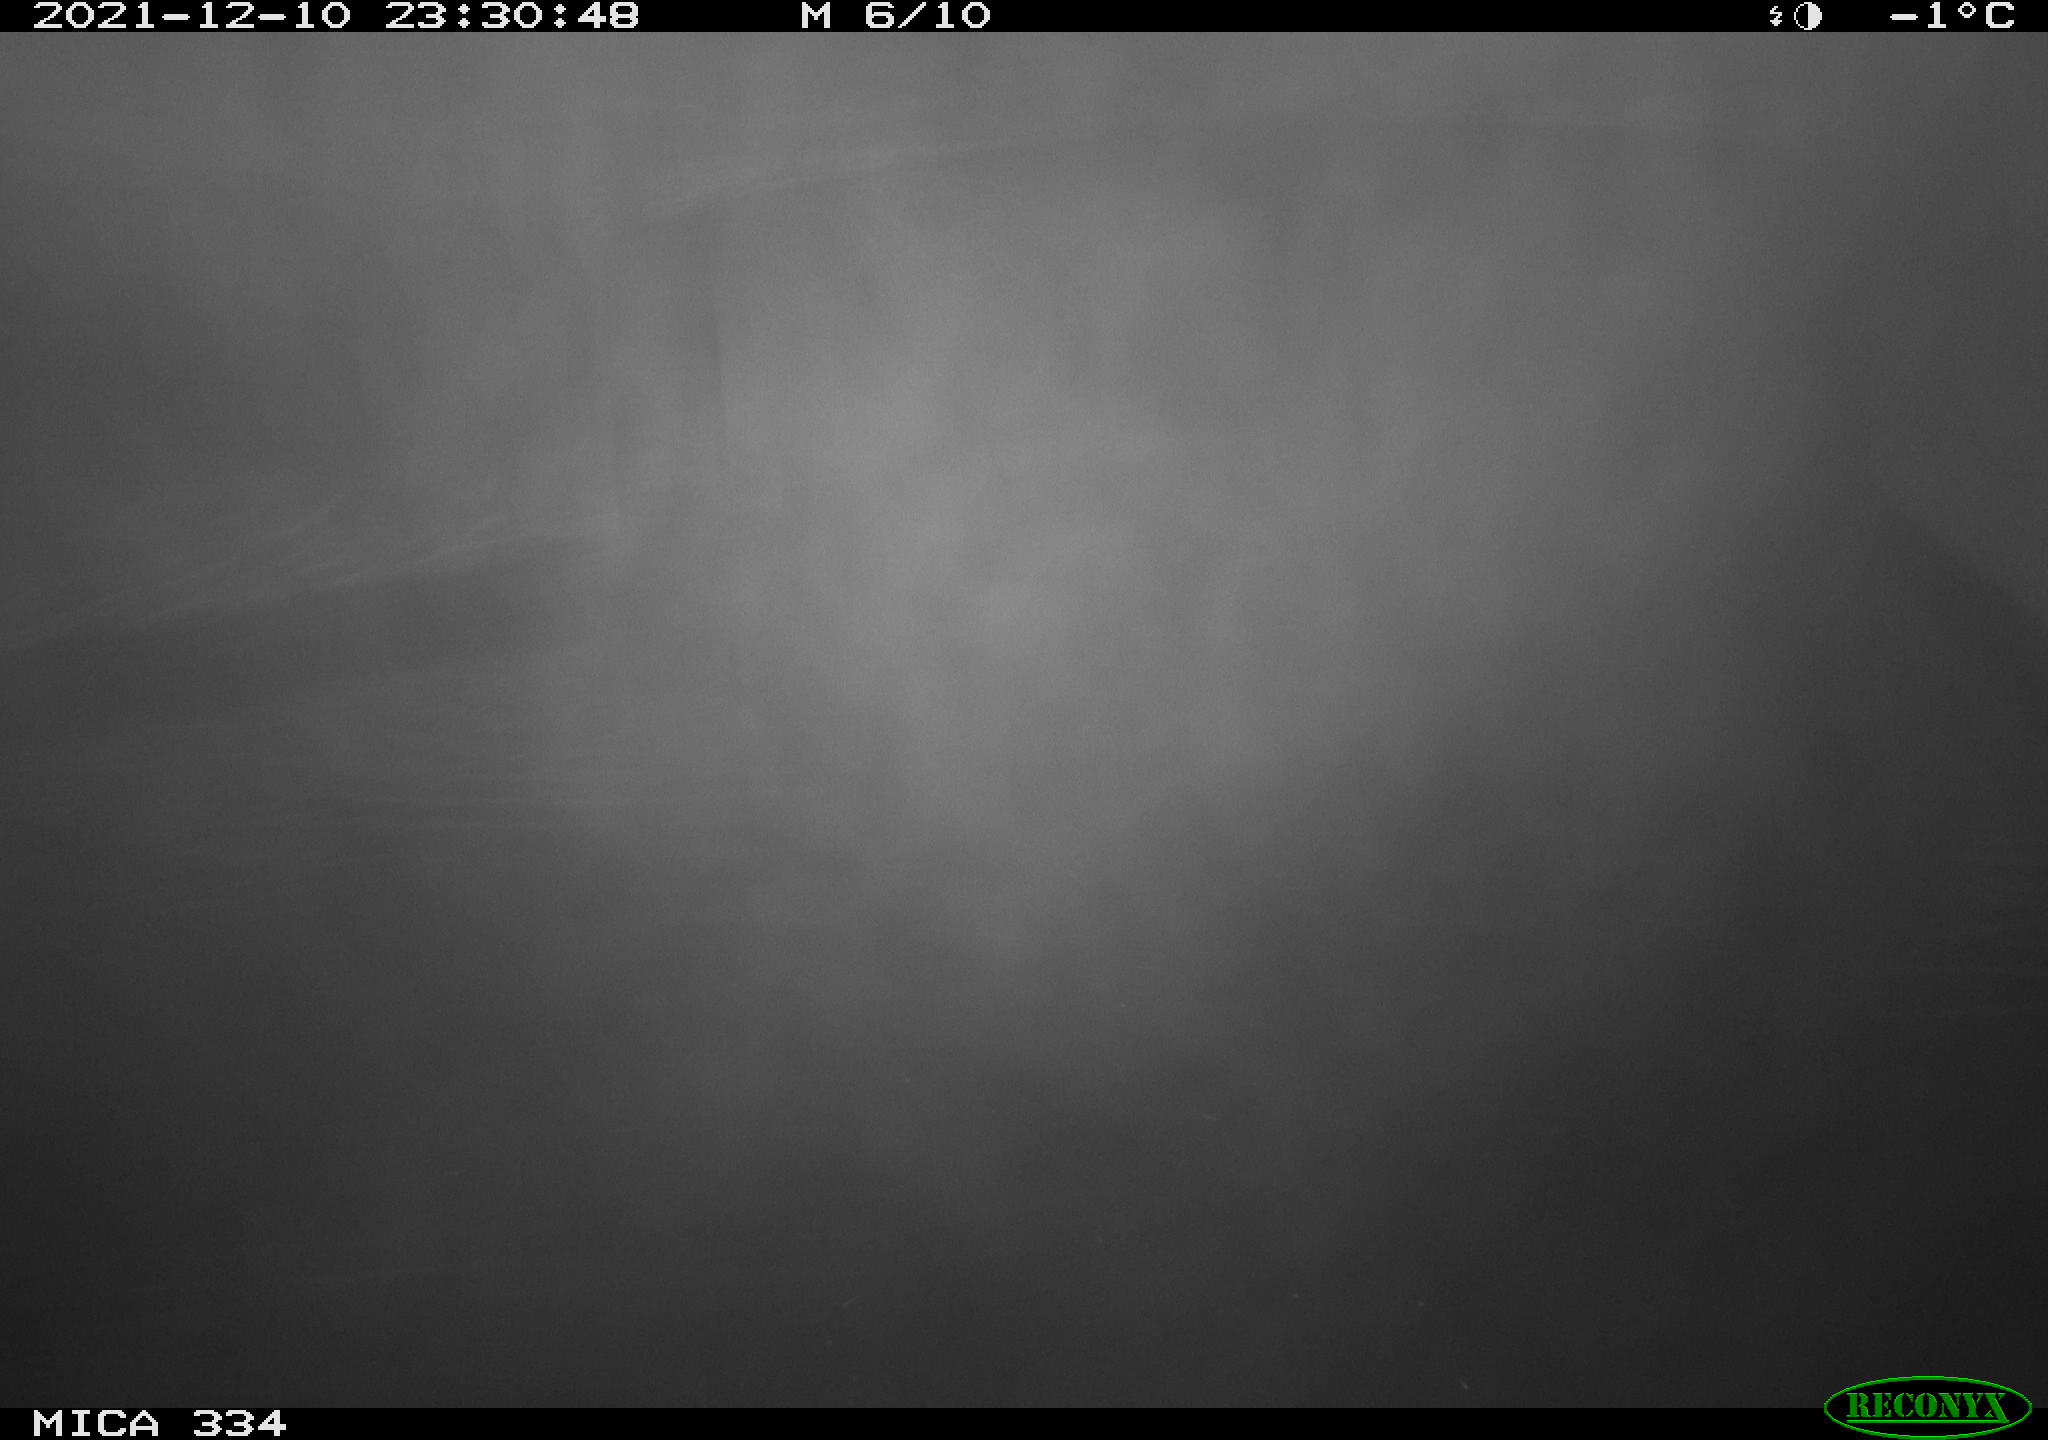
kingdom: Animalia
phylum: Chordata
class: Aves
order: Anseriformes
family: Anatidae
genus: Anas
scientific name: Anas platyrhynchos
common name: Mallard
